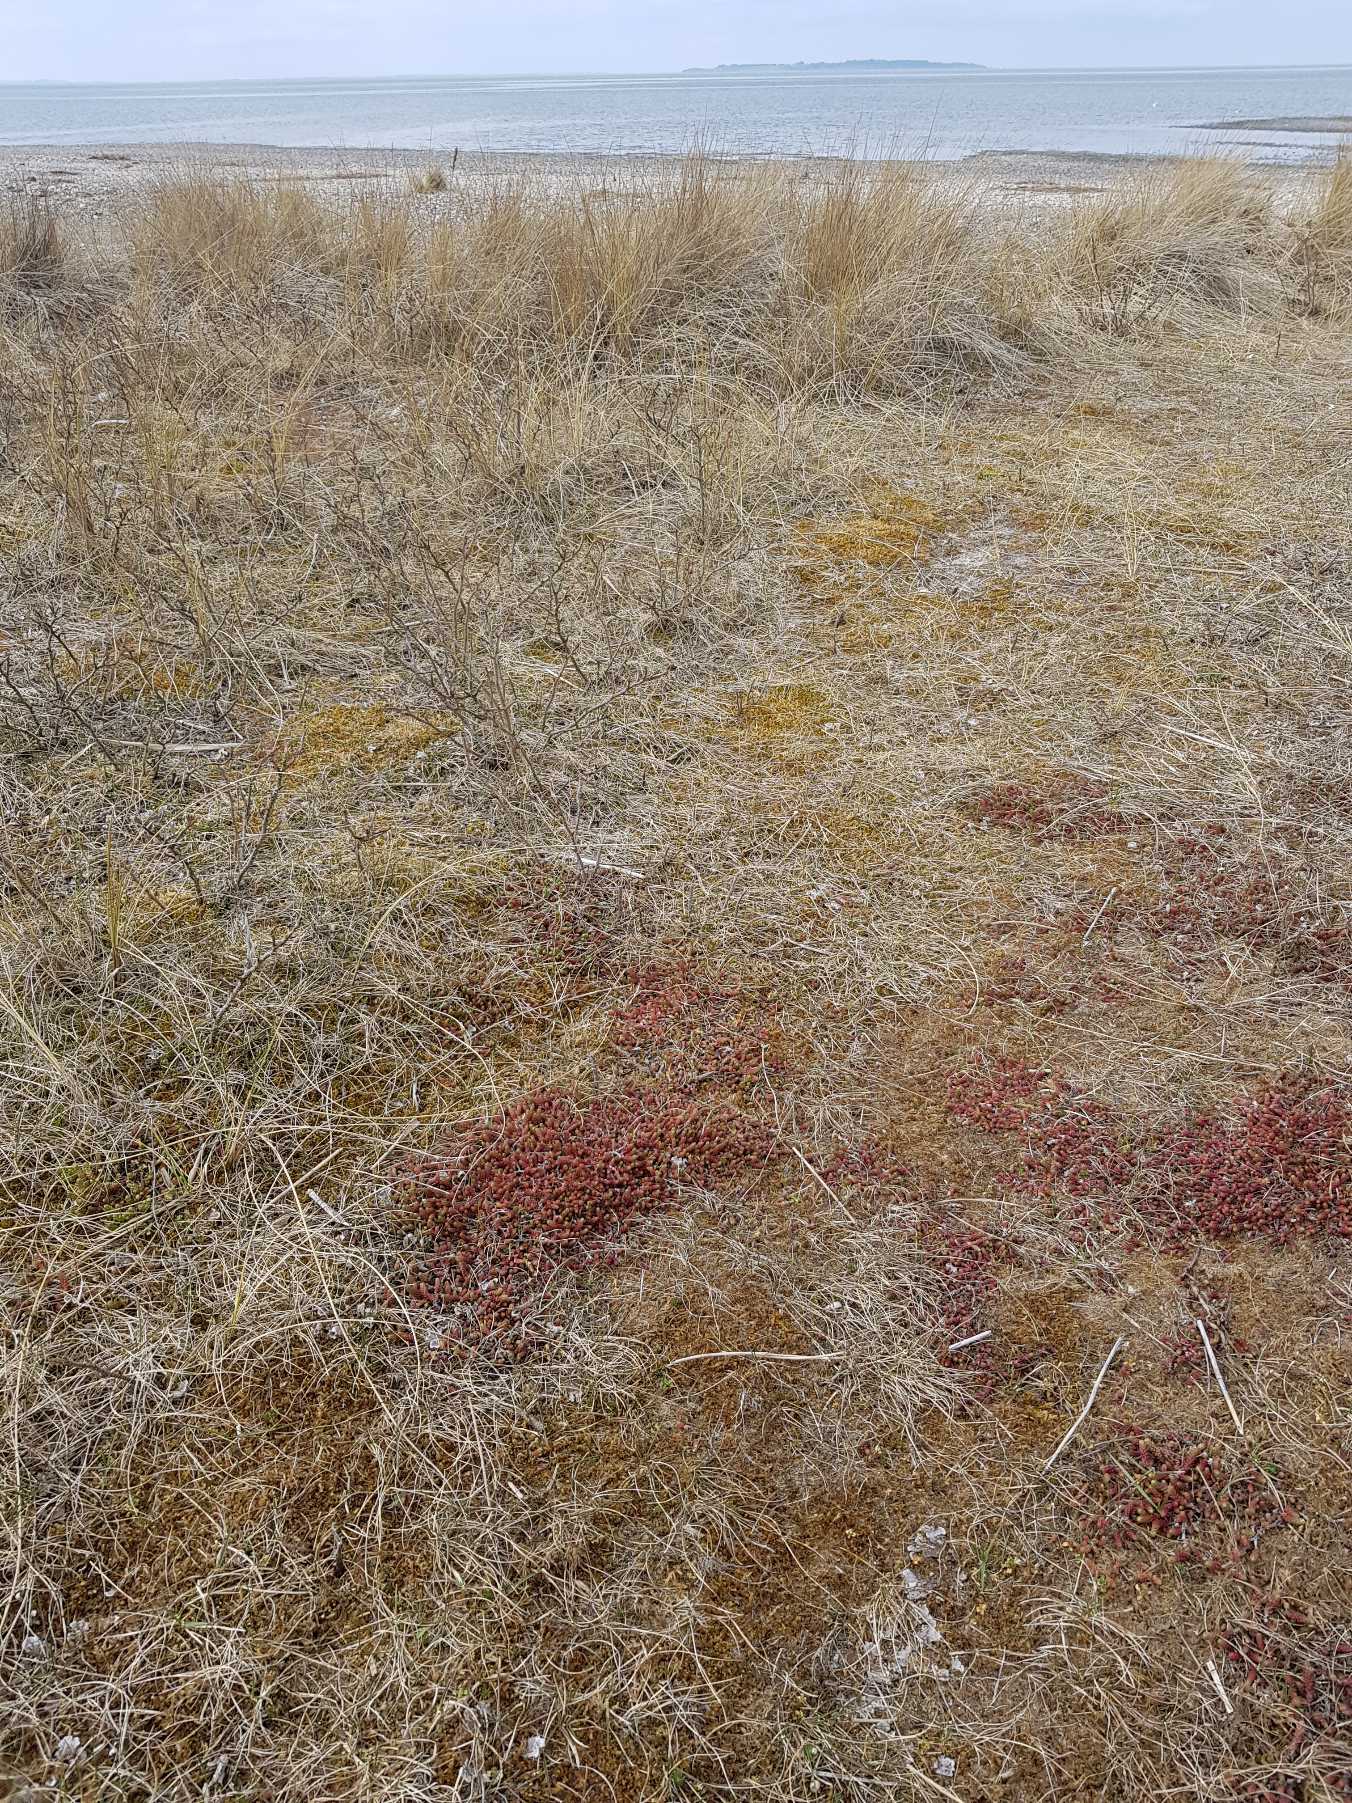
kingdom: Plantae
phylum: Tracheophyta
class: Magnoliopsida
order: Saxifragales
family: Crassulaceae
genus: Sedum
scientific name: Sedum acre
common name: Bidende stenurt
